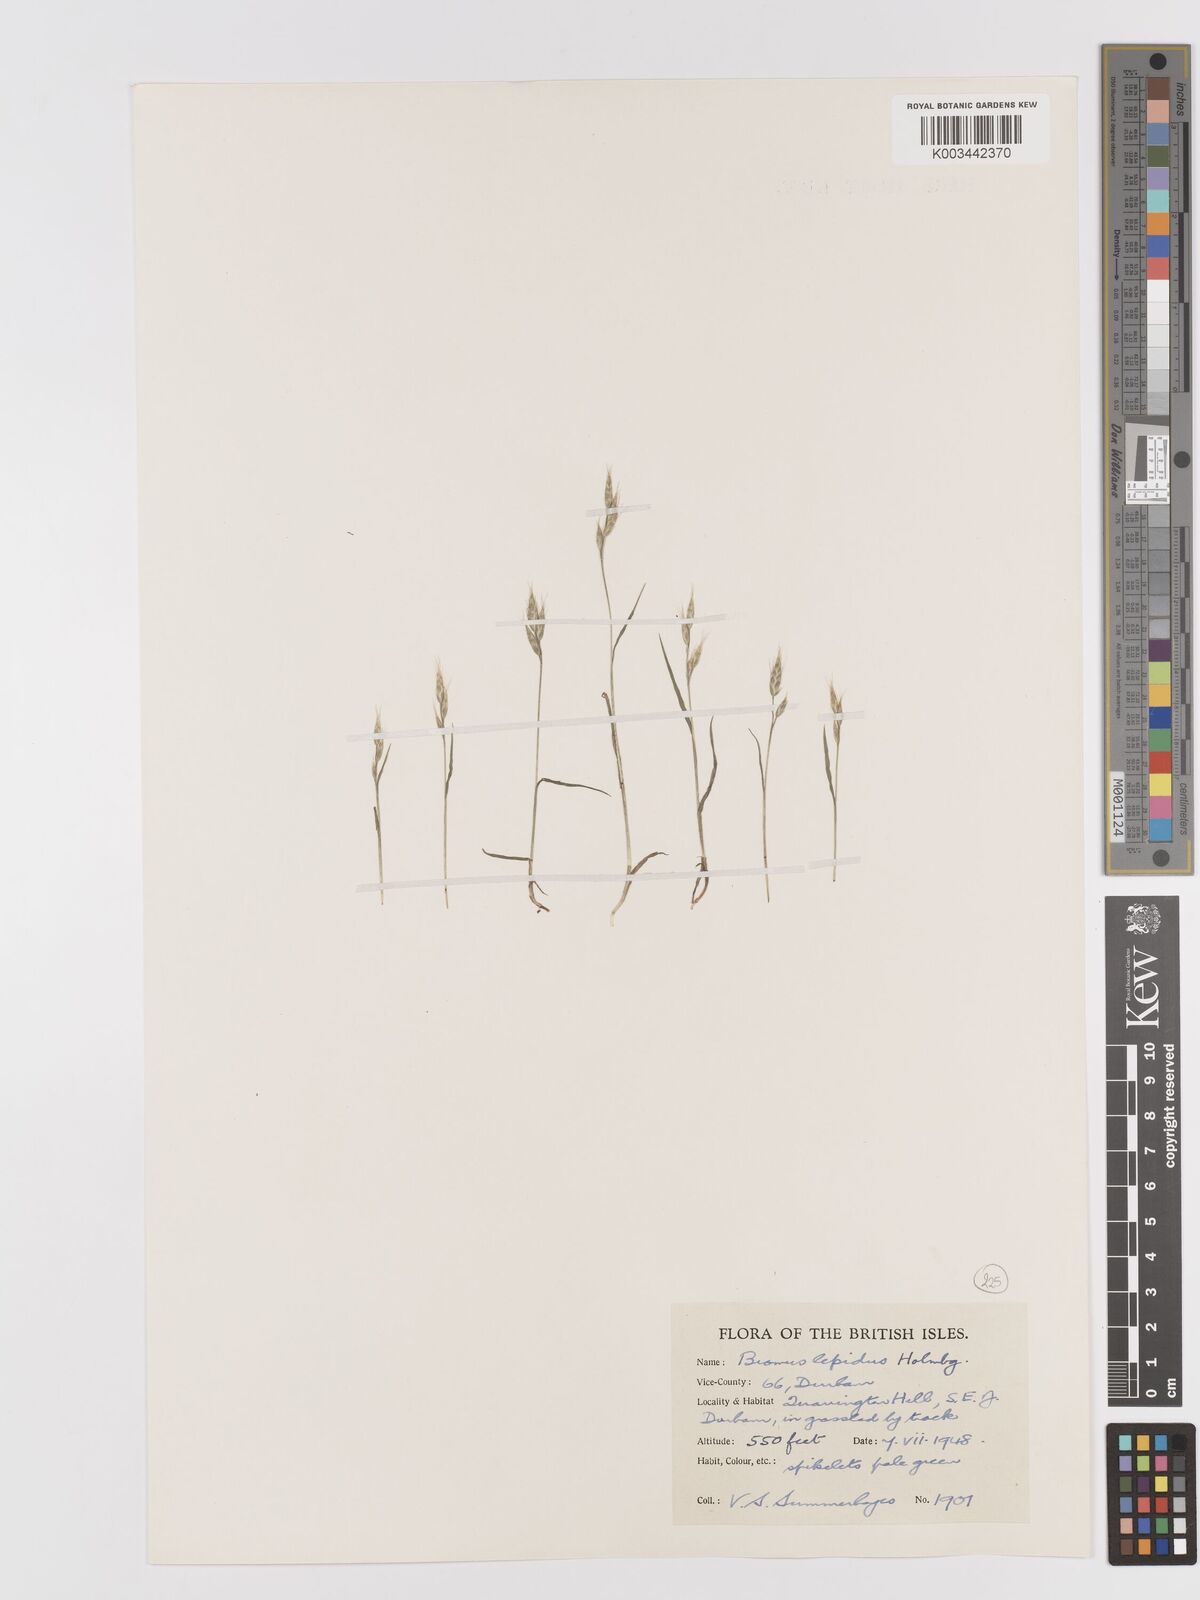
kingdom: Plantae
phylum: Tracheophyta
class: Liliopsida
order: Poales
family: Poaceae
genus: Bromus
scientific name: Bromus lepidus
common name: Slender soft-brome
